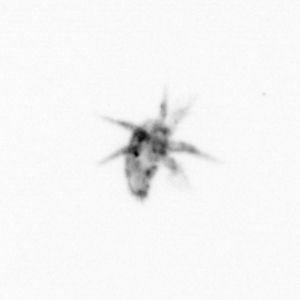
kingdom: Animalia
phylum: Arthropoda
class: Copepoda
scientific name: Copepoda
